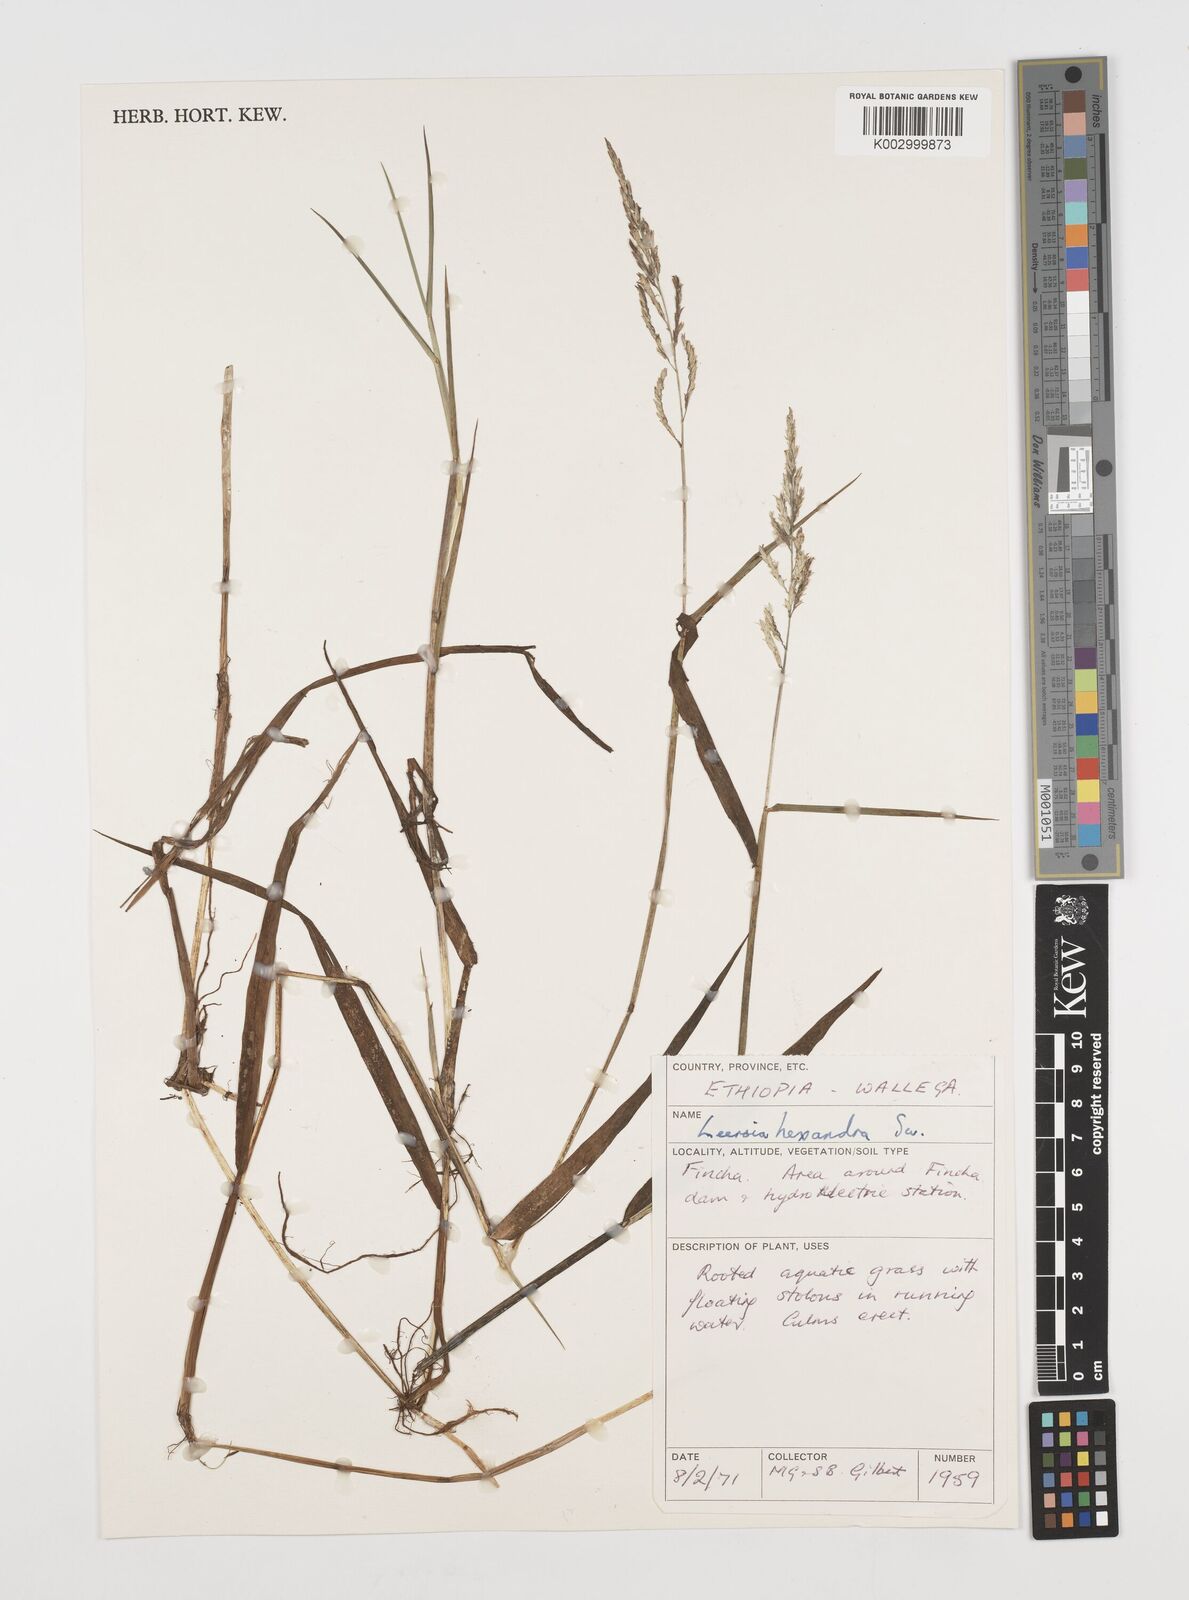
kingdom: Plantae
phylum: Tracheophyta
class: Liliopsida
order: Poales
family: Poaceae
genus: Leersia
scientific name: Leersia hexandra
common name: Southern cut grass
